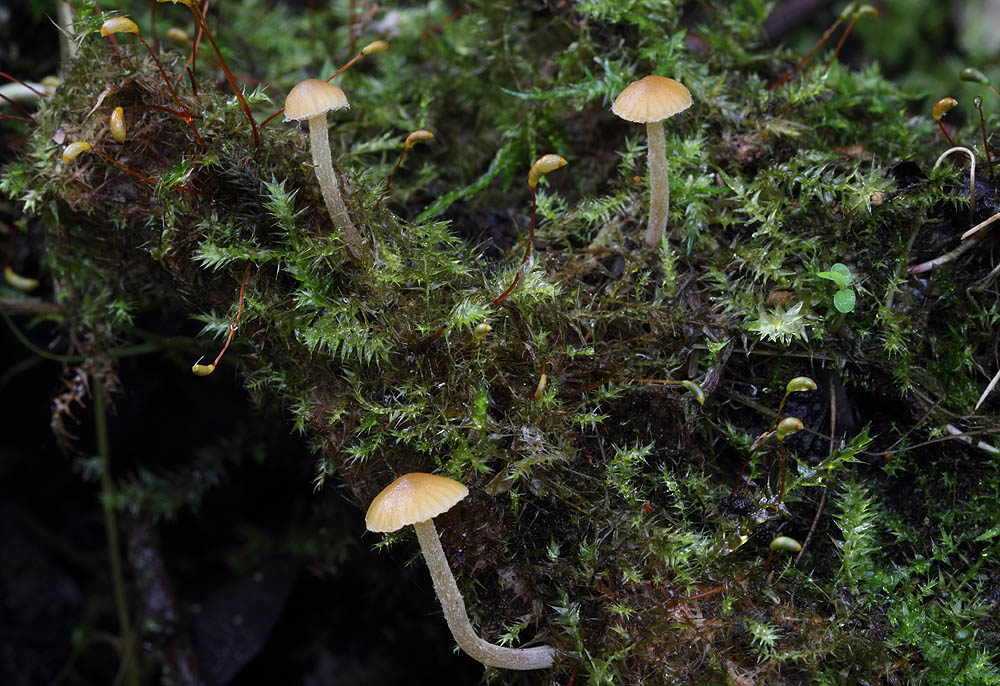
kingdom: Fungi
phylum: Basidiomycota
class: Agaricomycetes
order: Agaricales
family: Hymenogastraceae
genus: Galerina
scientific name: Galerina clavata
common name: kær-hjelmhat
